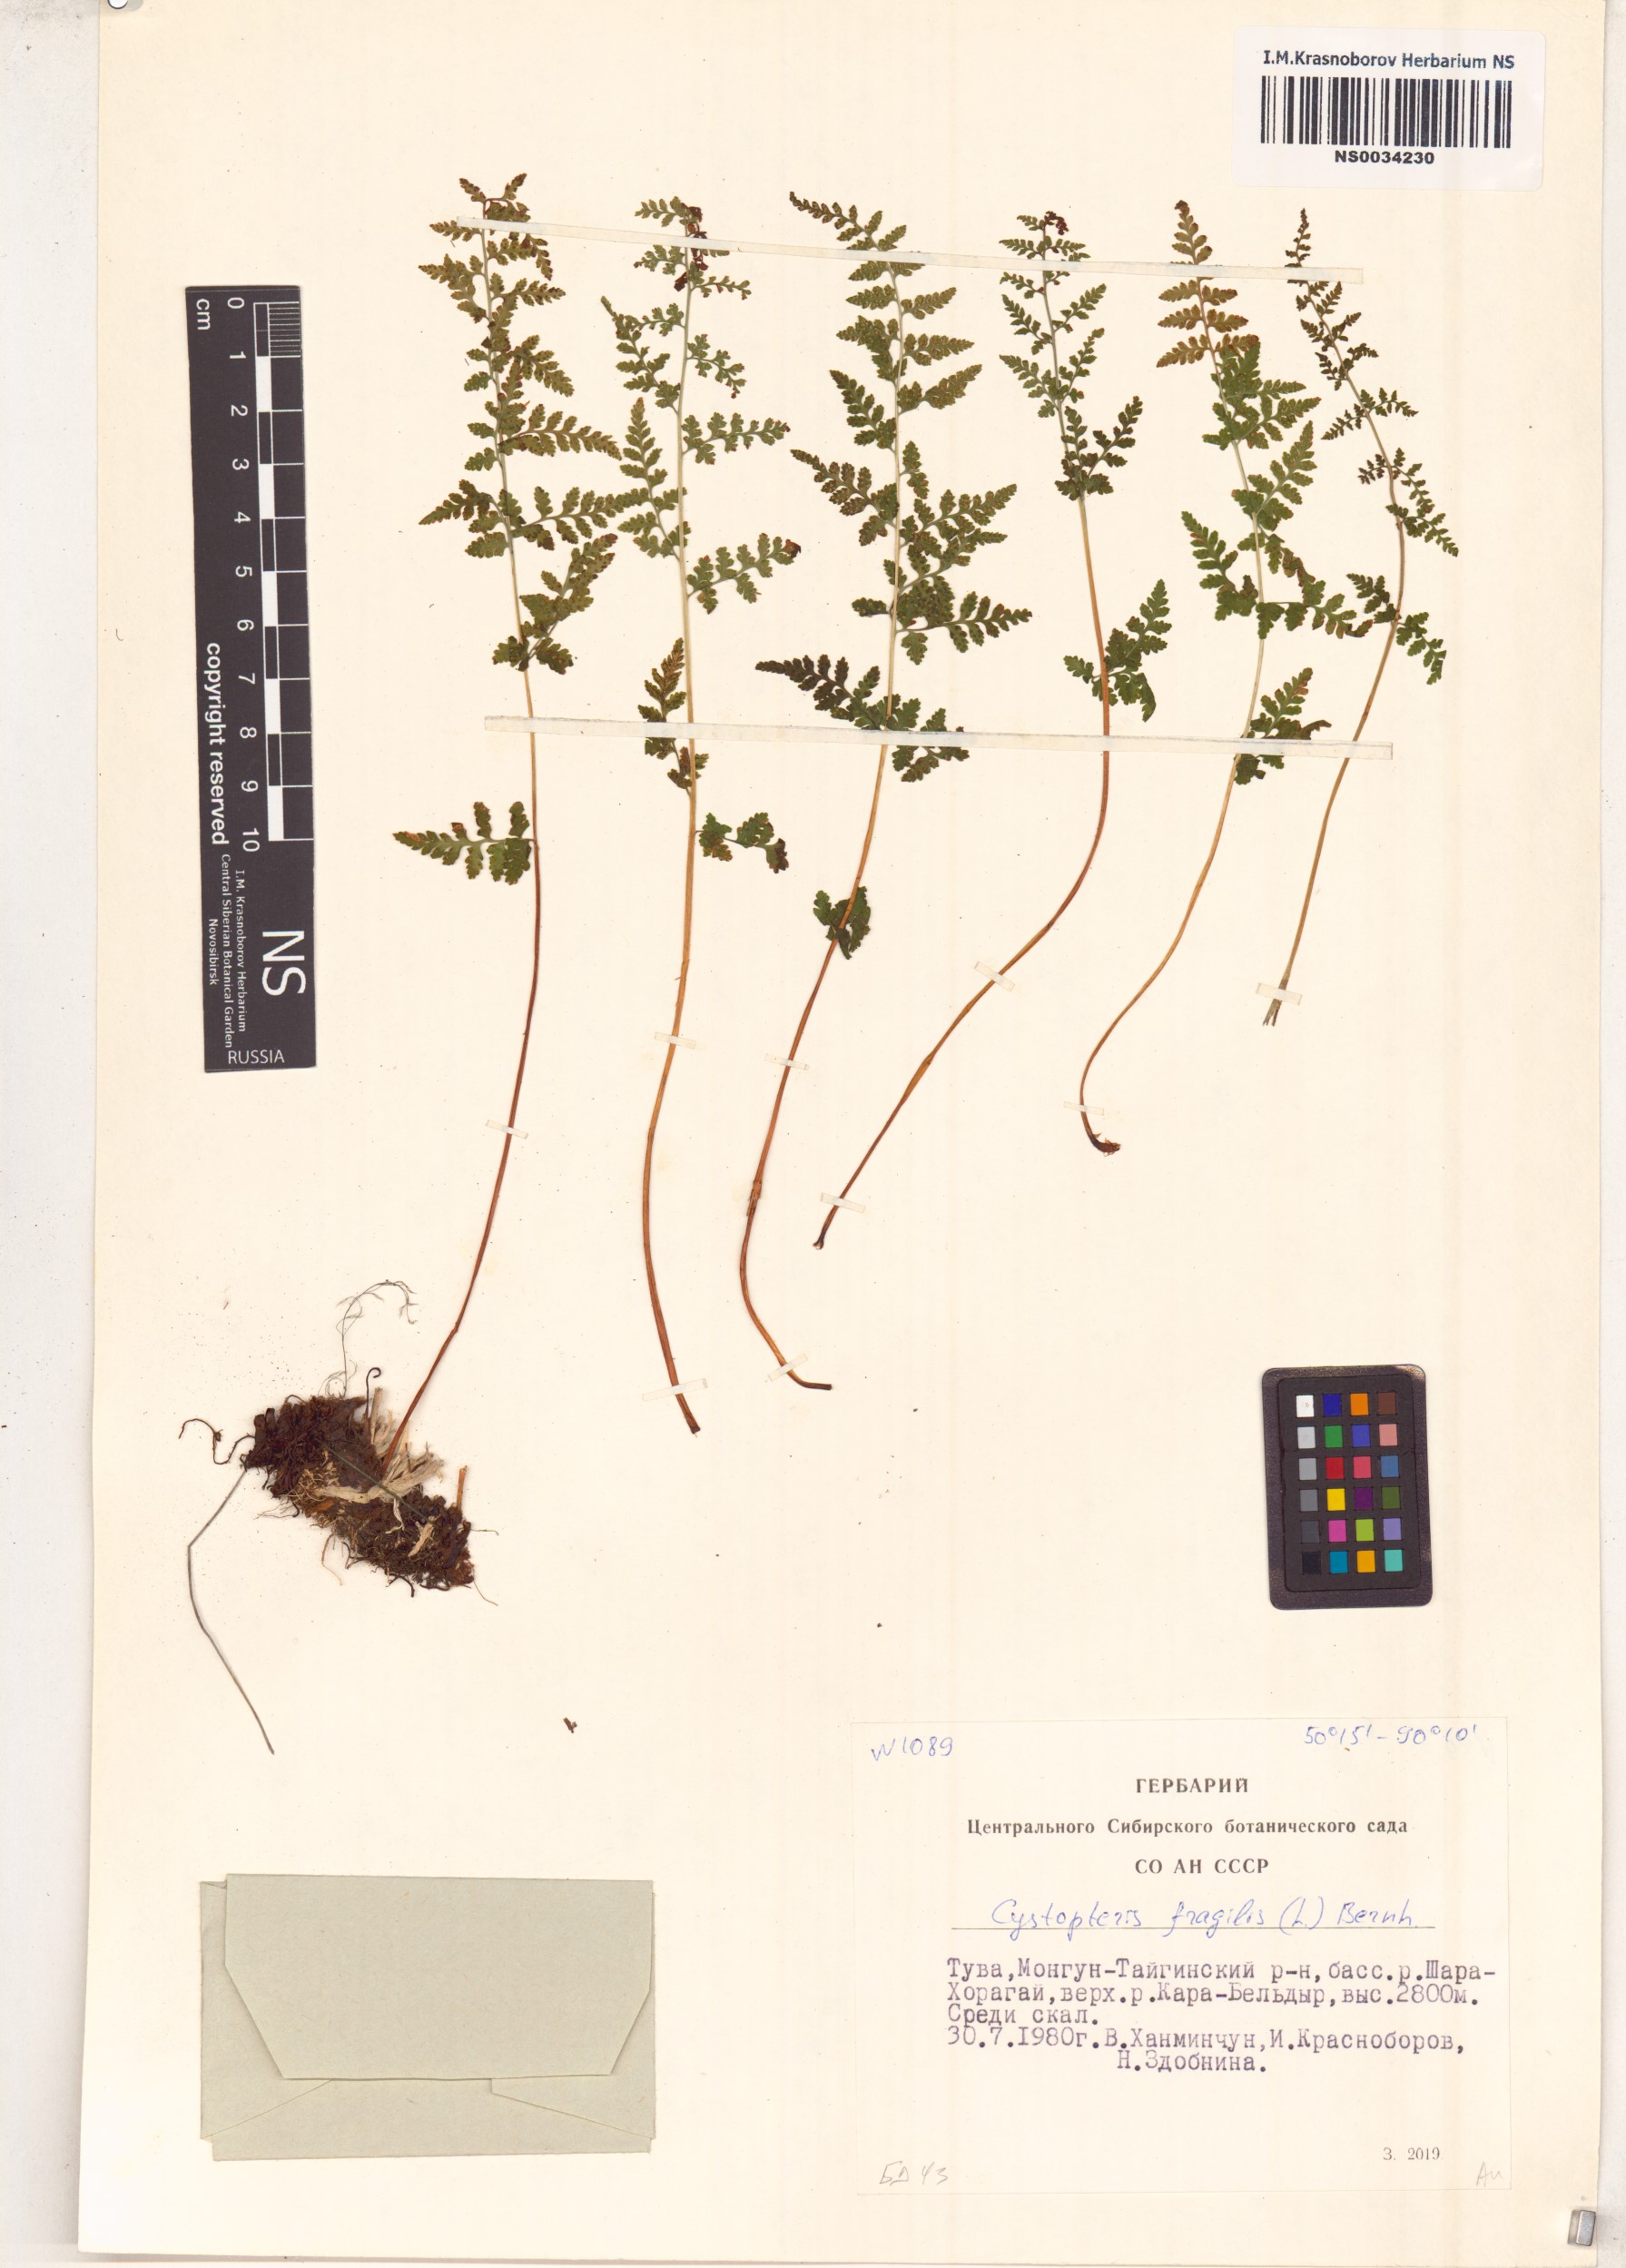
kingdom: Plantae
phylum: Tracheophyta
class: Polypodiopsida
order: Polypodiales
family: Cystopteridaceae
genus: Cystopteris
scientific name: Cystopteris fragilis
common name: Brittle bladder fern
